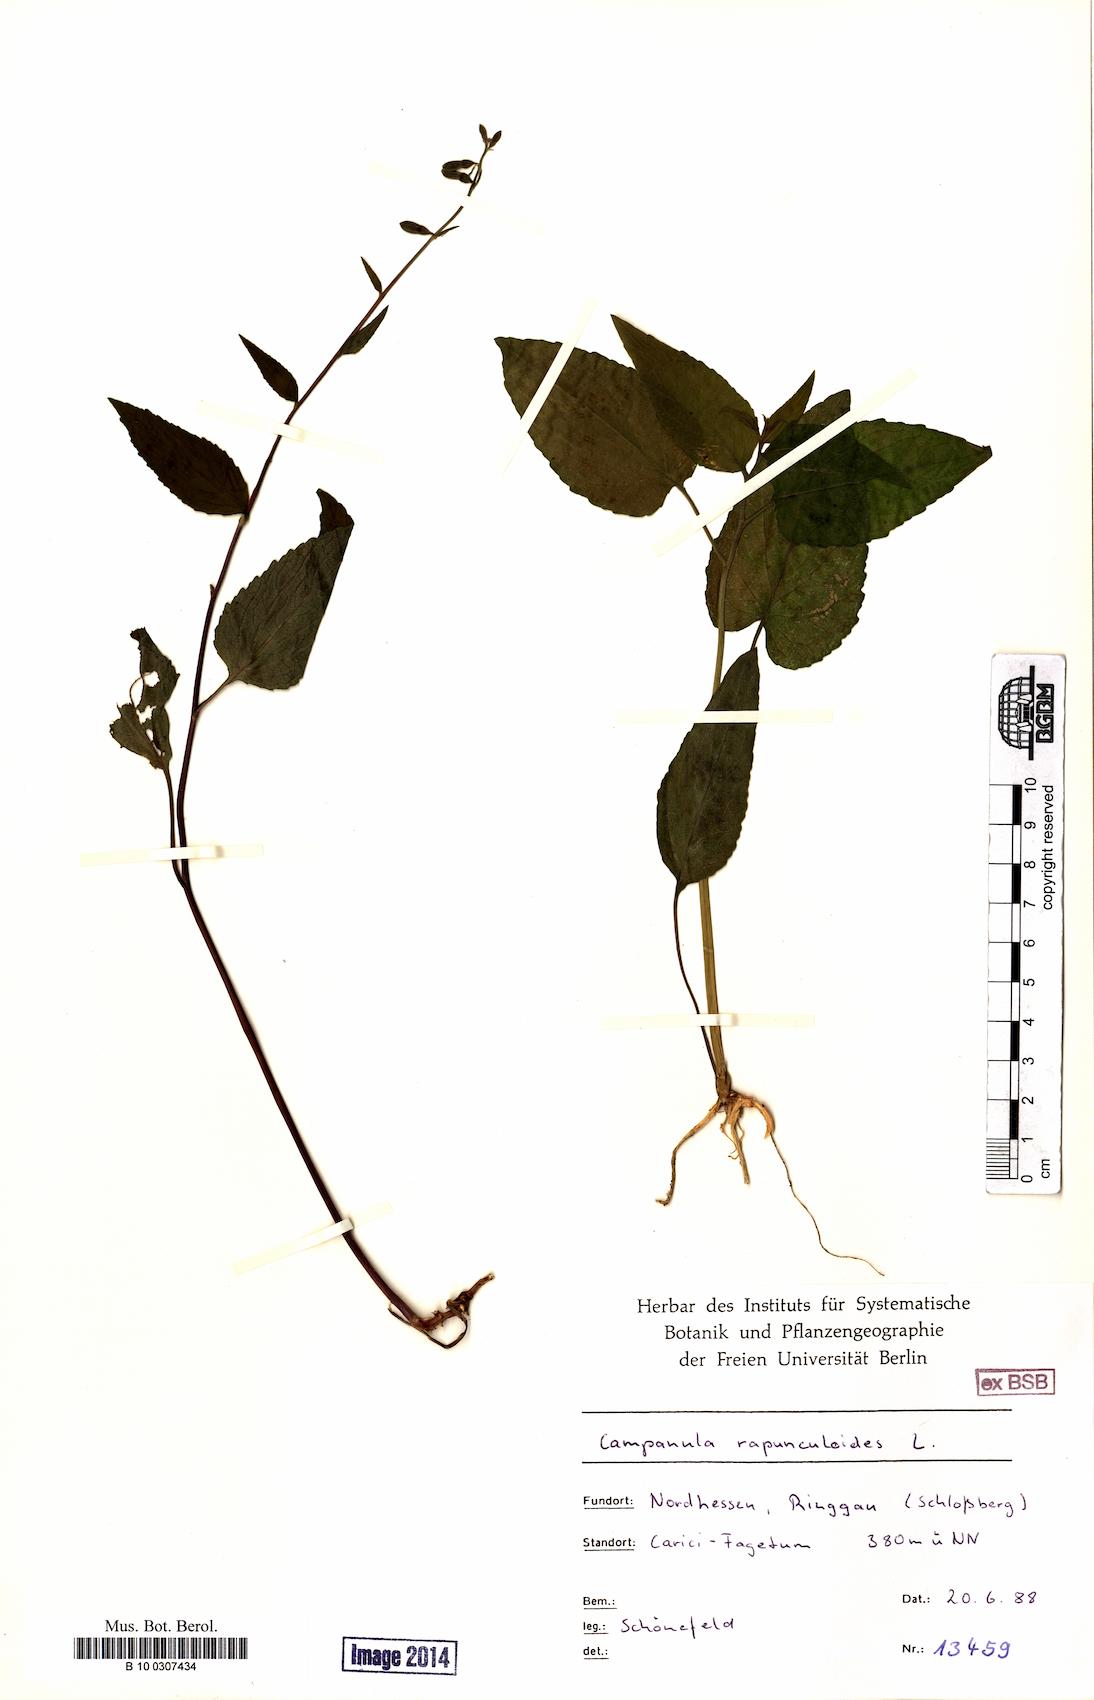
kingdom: Plantae
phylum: Tracheophyta
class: Magnoliopsida
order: Asterales
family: Campanulaceae
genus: Campanula
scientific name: Campanula rapunculoides
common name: Creeping bellflower
